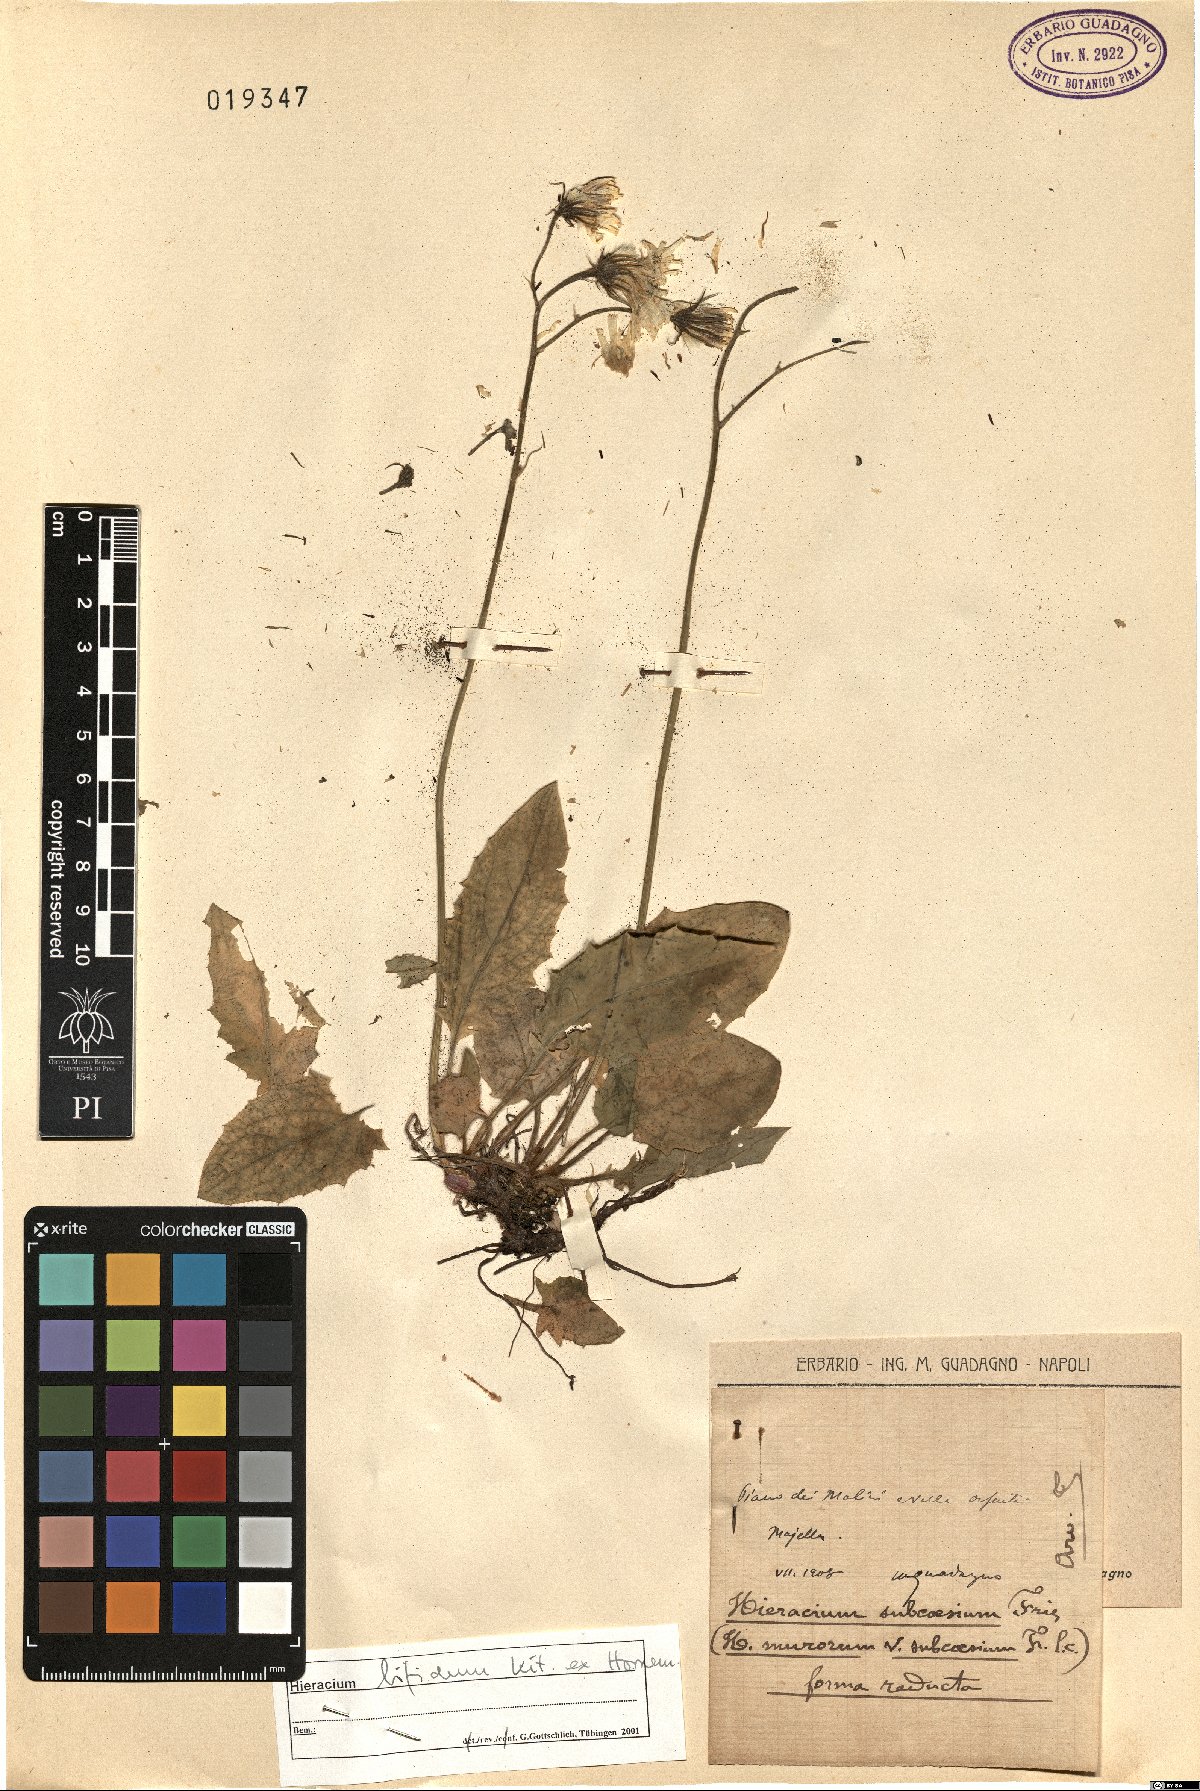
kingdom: Plantae
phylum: Tracheophyta
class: Magnoliopsida
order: Asterales
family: Asteraceae
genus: Hieracium
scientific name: Hieracium bifidum
